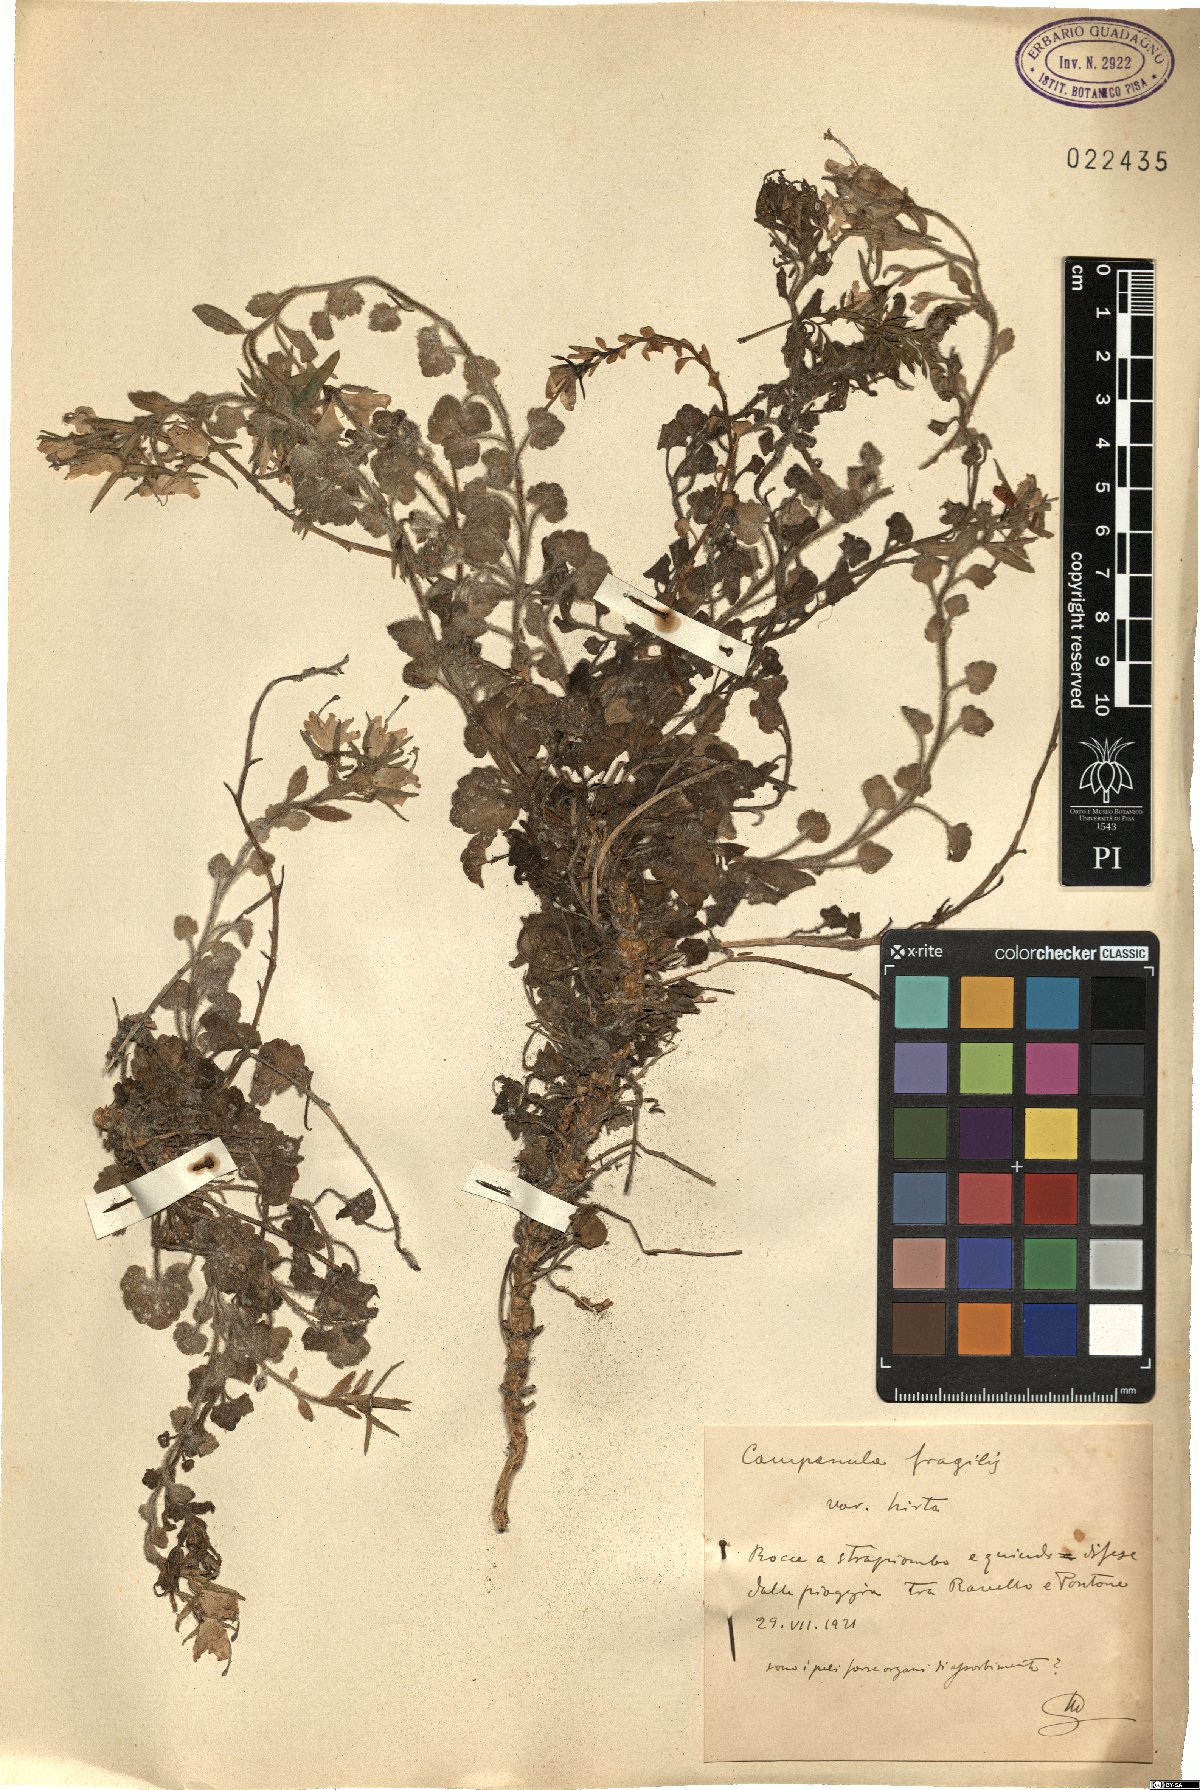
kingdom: Plantae
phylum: Tracheophyta
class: Magnoliopsida
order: Asterales
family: Campanulaceae
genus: Campanula
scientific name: Campanula fragilis
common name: Italian bellflower
